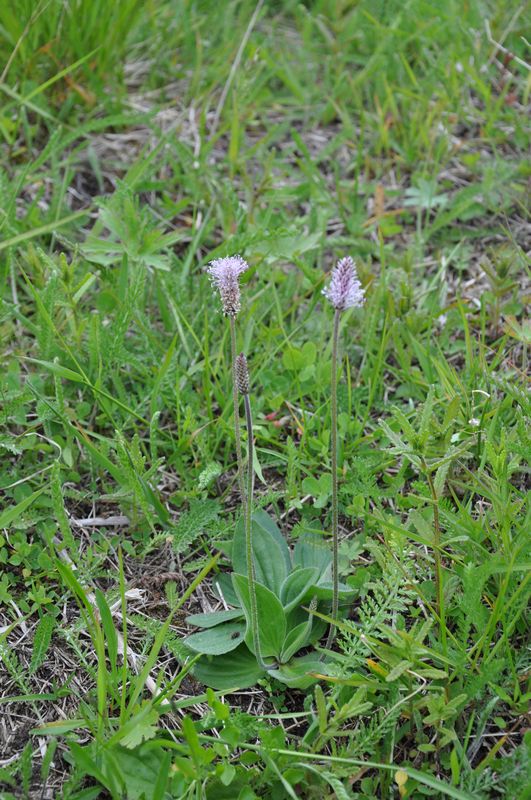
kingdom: Plantae
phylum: Tracheophyta
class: Magnoliopsida
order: Lamiales
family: Plantaginaceae
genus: Plantago
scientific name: Plantago media
